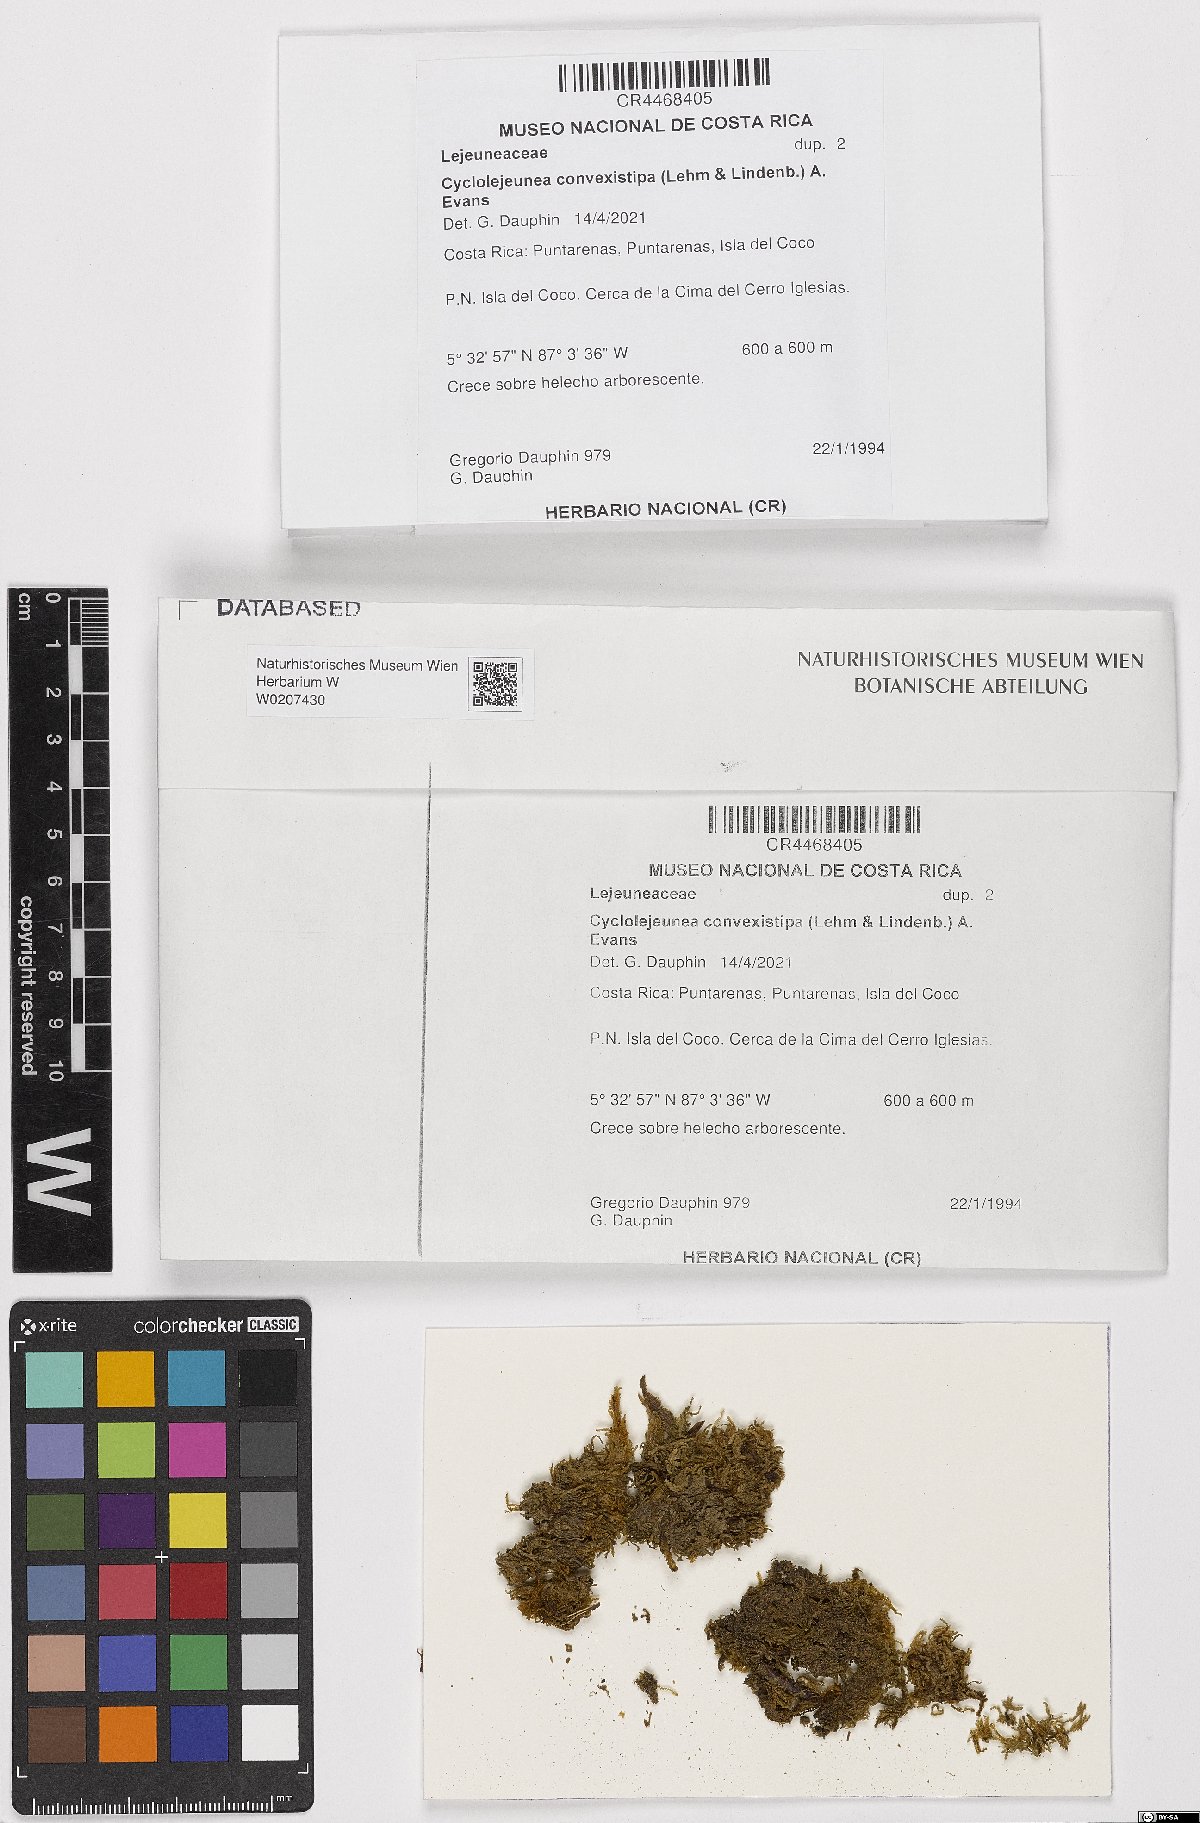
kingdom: Plantae
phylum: Marchantiophyta
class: Jungermanniopsida
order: Porellales
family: Lejeuneaceae
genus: Cyclolejeunea
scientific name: Cyclolejeunea convexistipa
